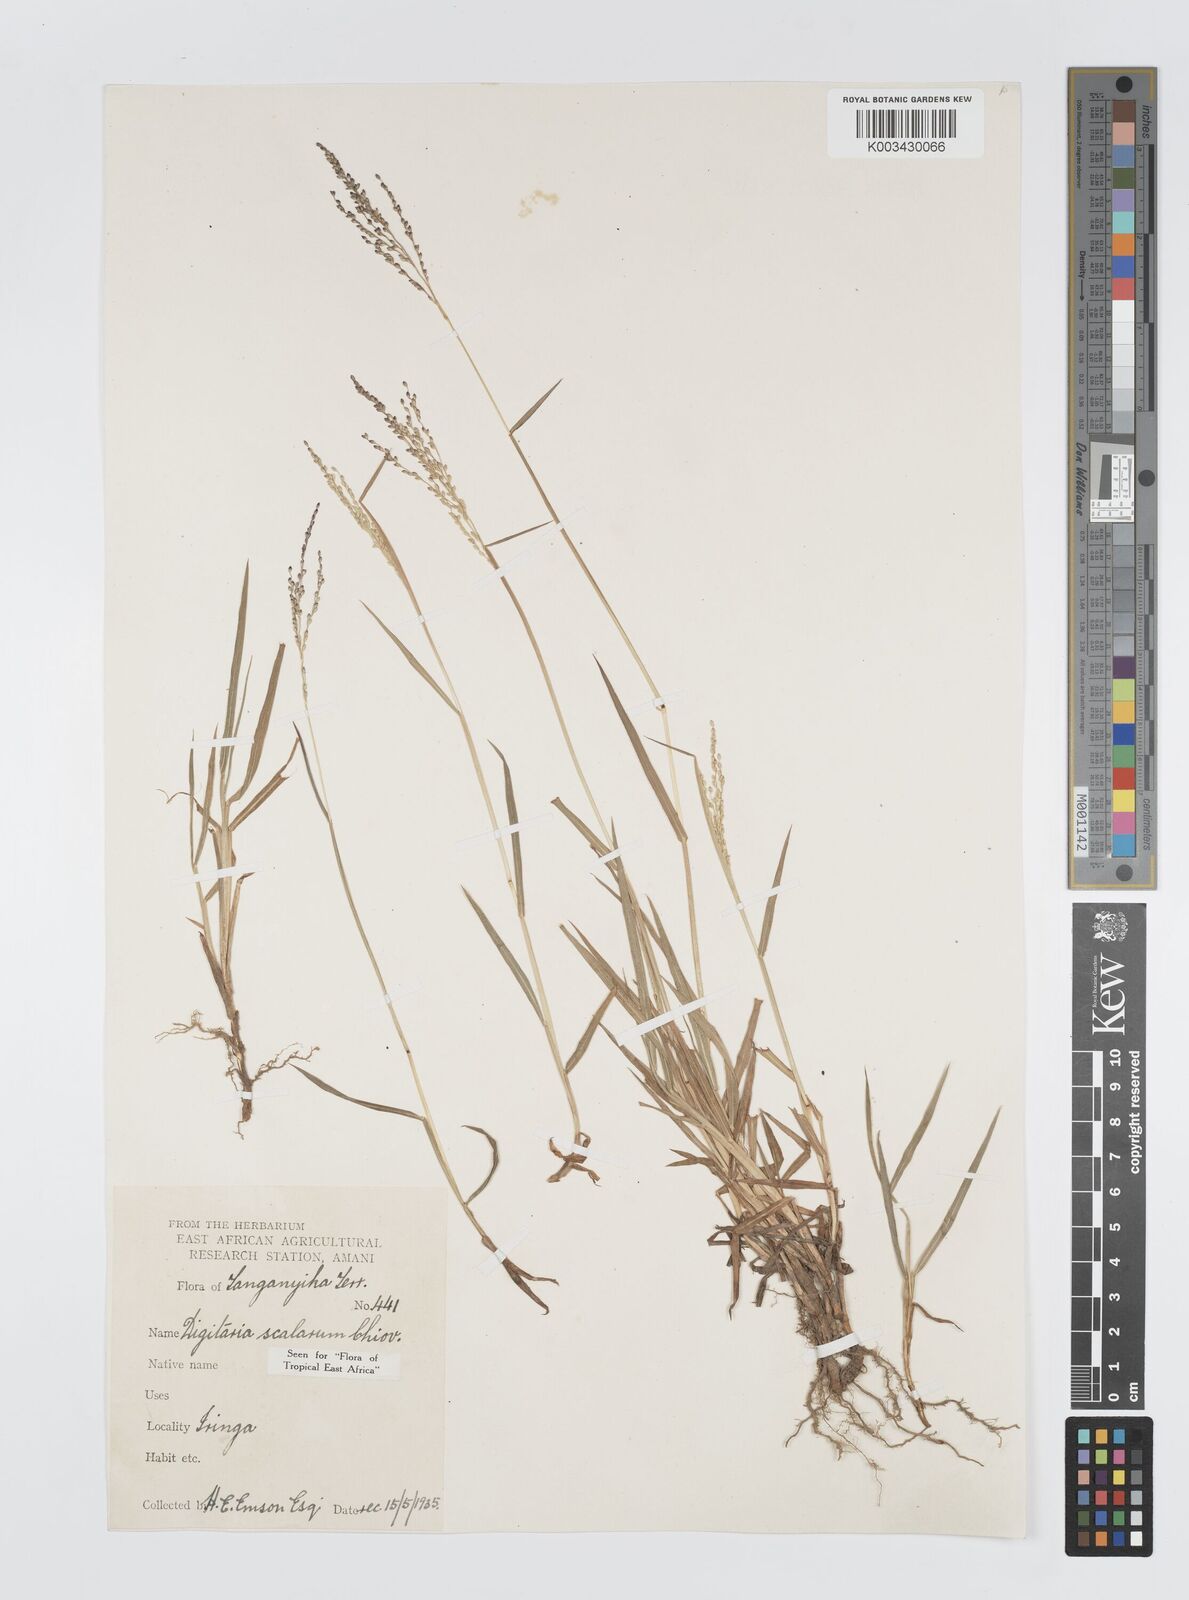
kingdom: Plantae
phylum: Tracheophyta
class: Liliopsida
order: Poales
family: Poaceae
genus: Digitaria
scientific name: Digitaria abyssinica
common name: African couchgrass
